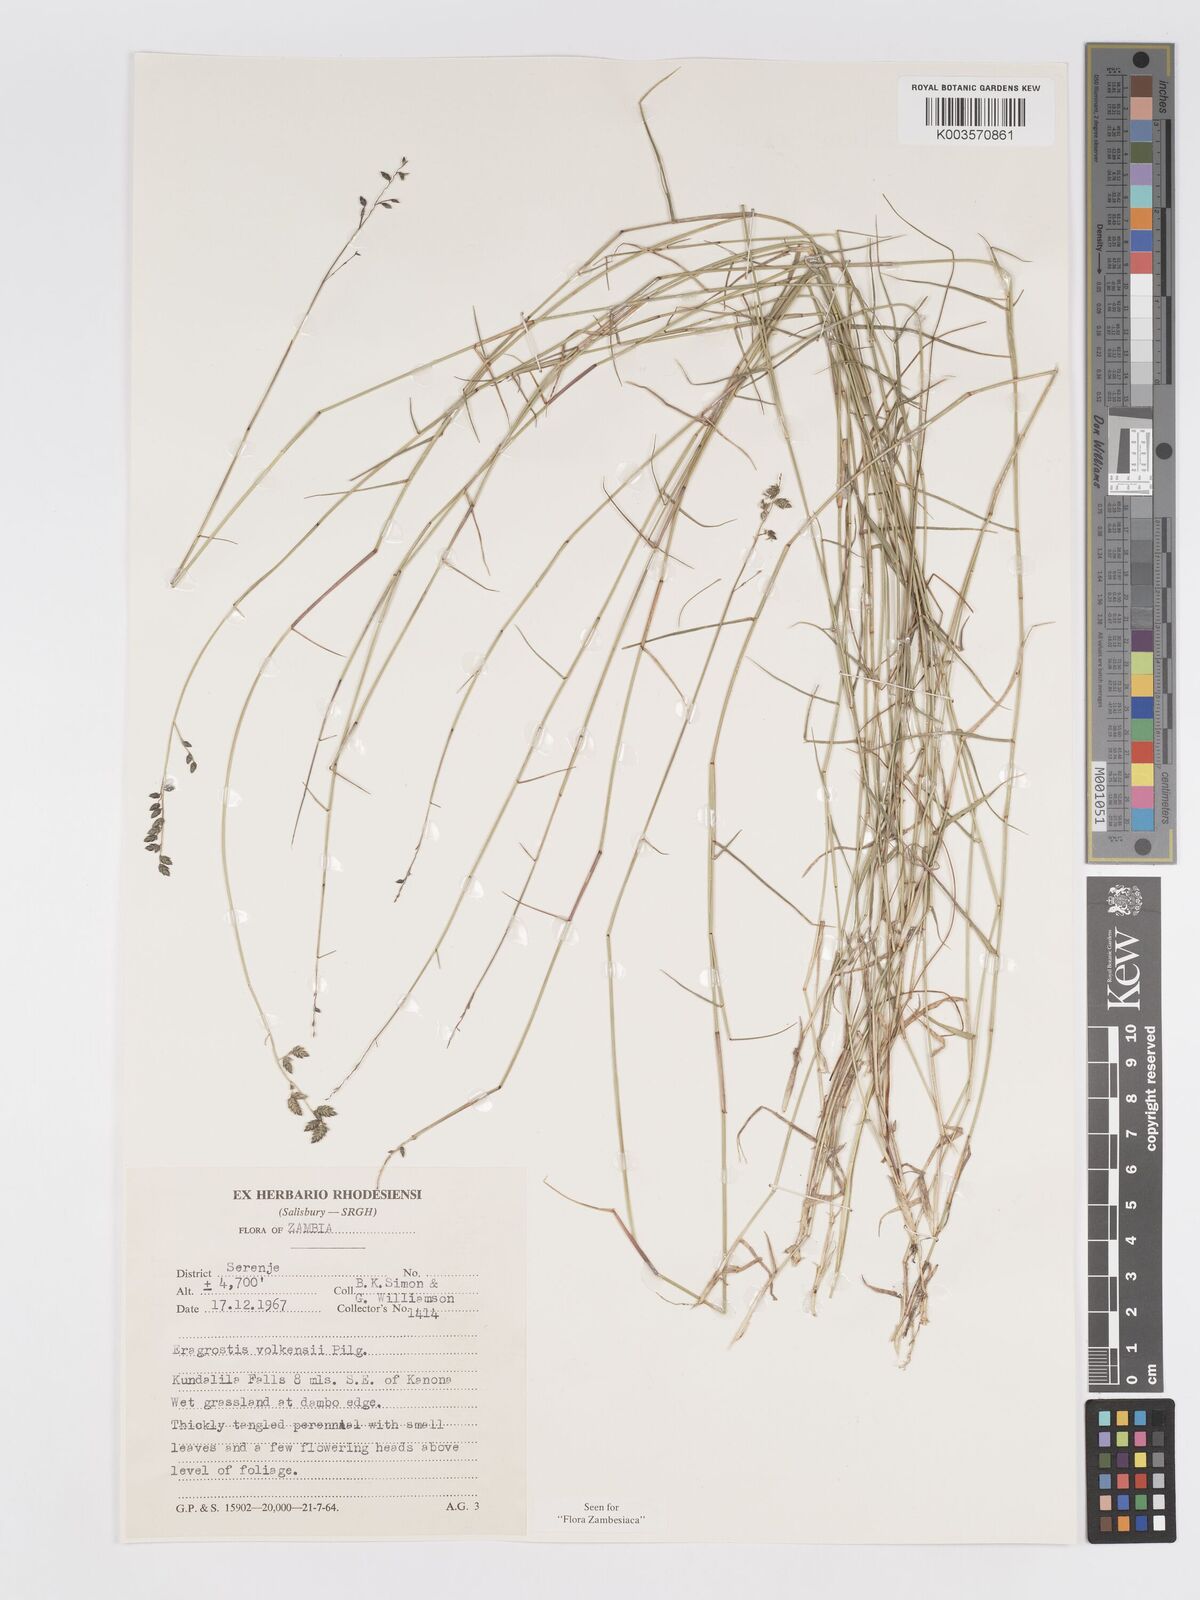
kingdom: Plantae
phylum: Tracheophyta
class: Liliopsida
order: Poales
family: Poaceae
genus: Eragrostis
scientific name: Eragrostis volkensii
